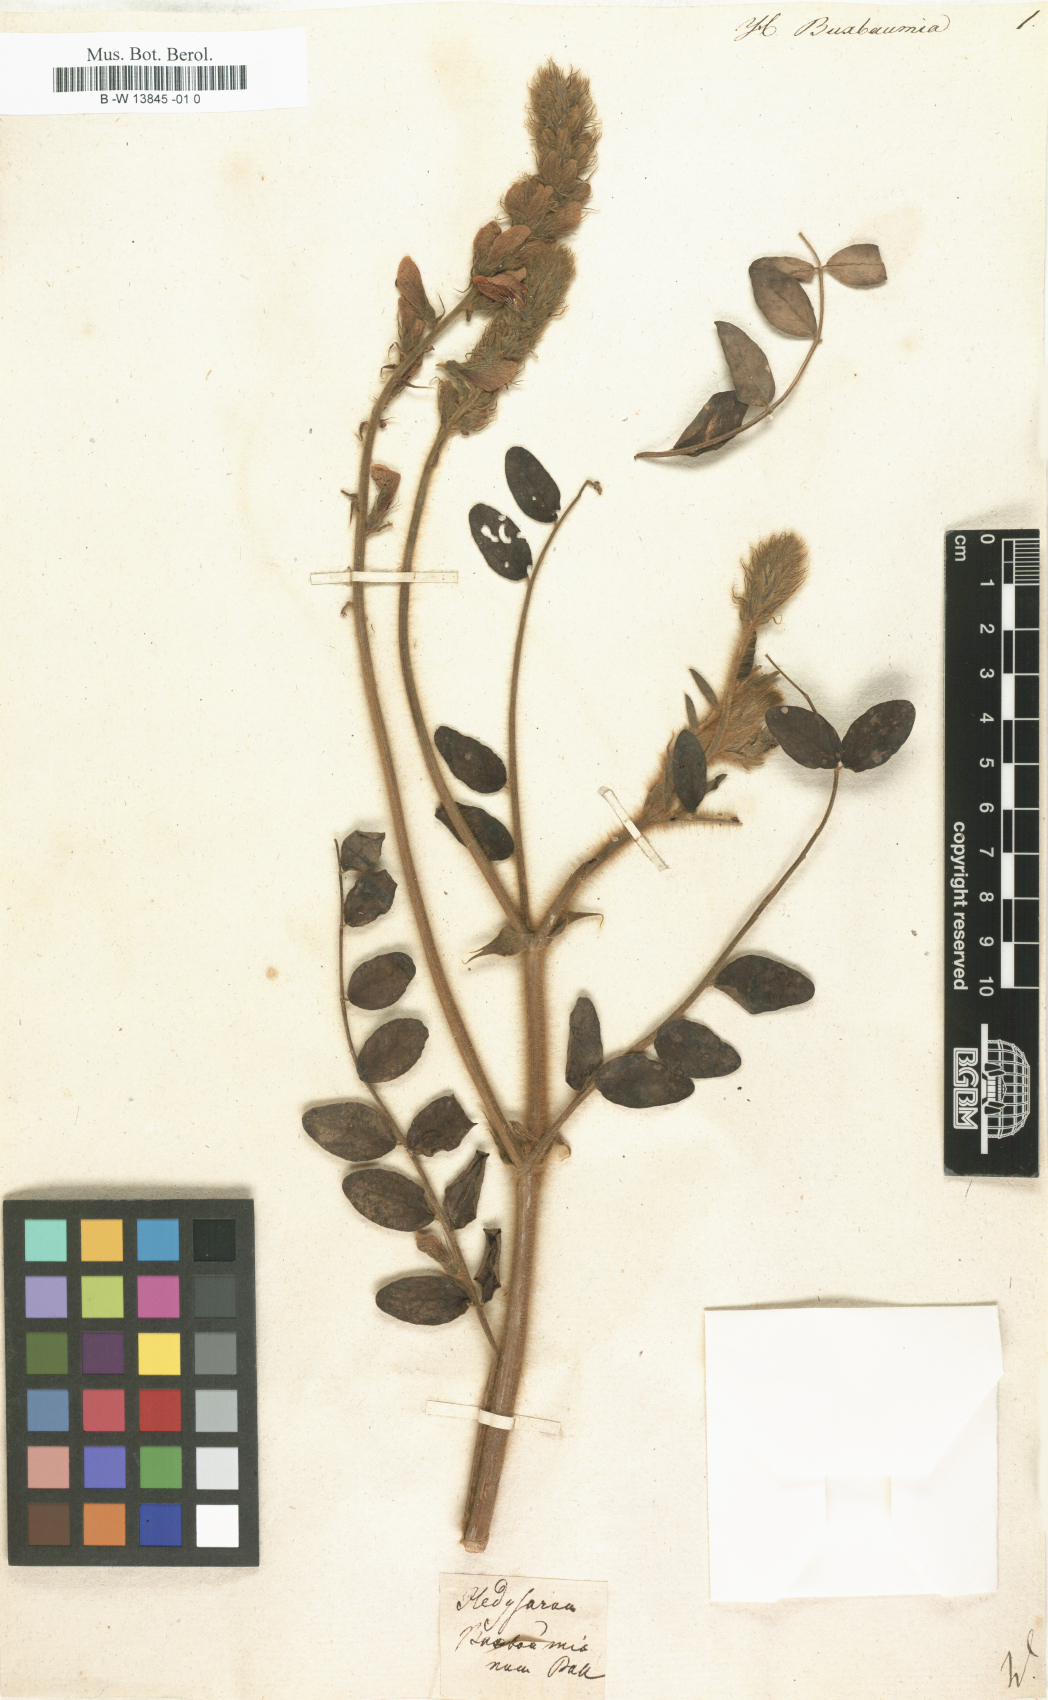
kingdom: Plantae
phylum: Tracheophyta
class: Magnoliopsida
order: Fabales
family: Fabaceae
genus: Onobrychis
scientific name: Onobrychis radiata
